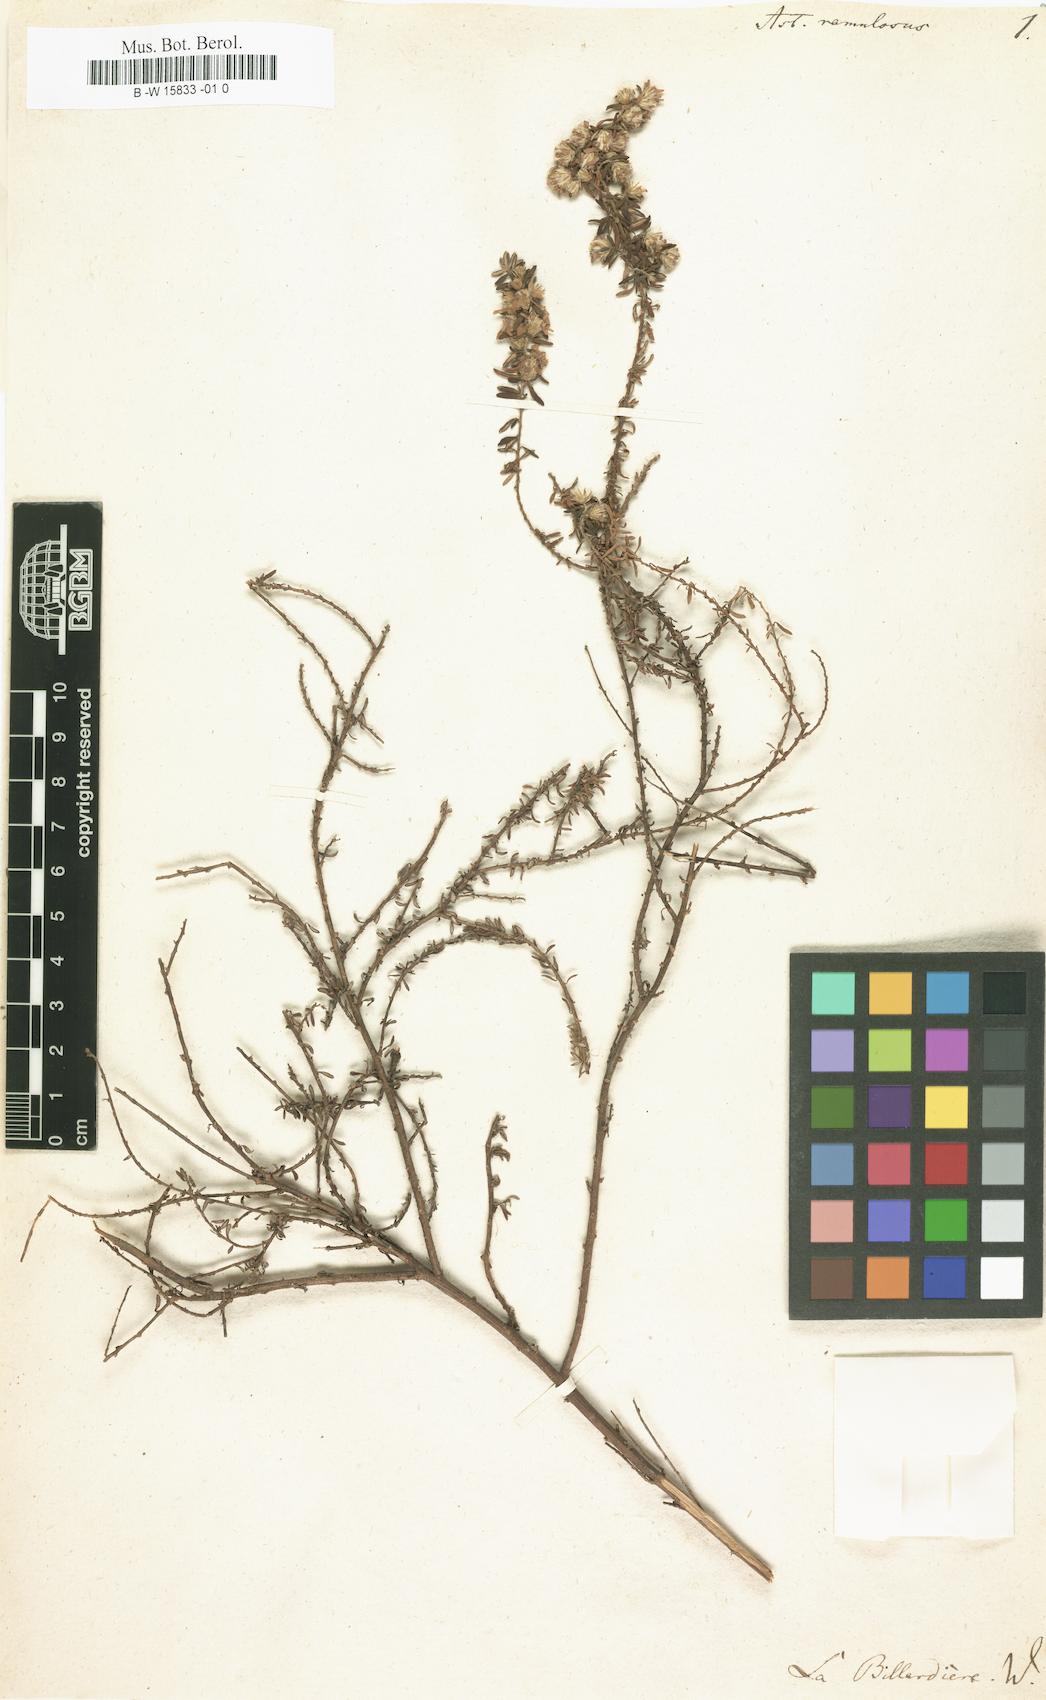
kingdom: Plantae
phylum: Tracheophyta
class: Magnoliopsida
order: Asterales
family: Asteraceae
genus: Olearia
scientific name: Olearia ramulosa
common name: Twiggy daisybush
